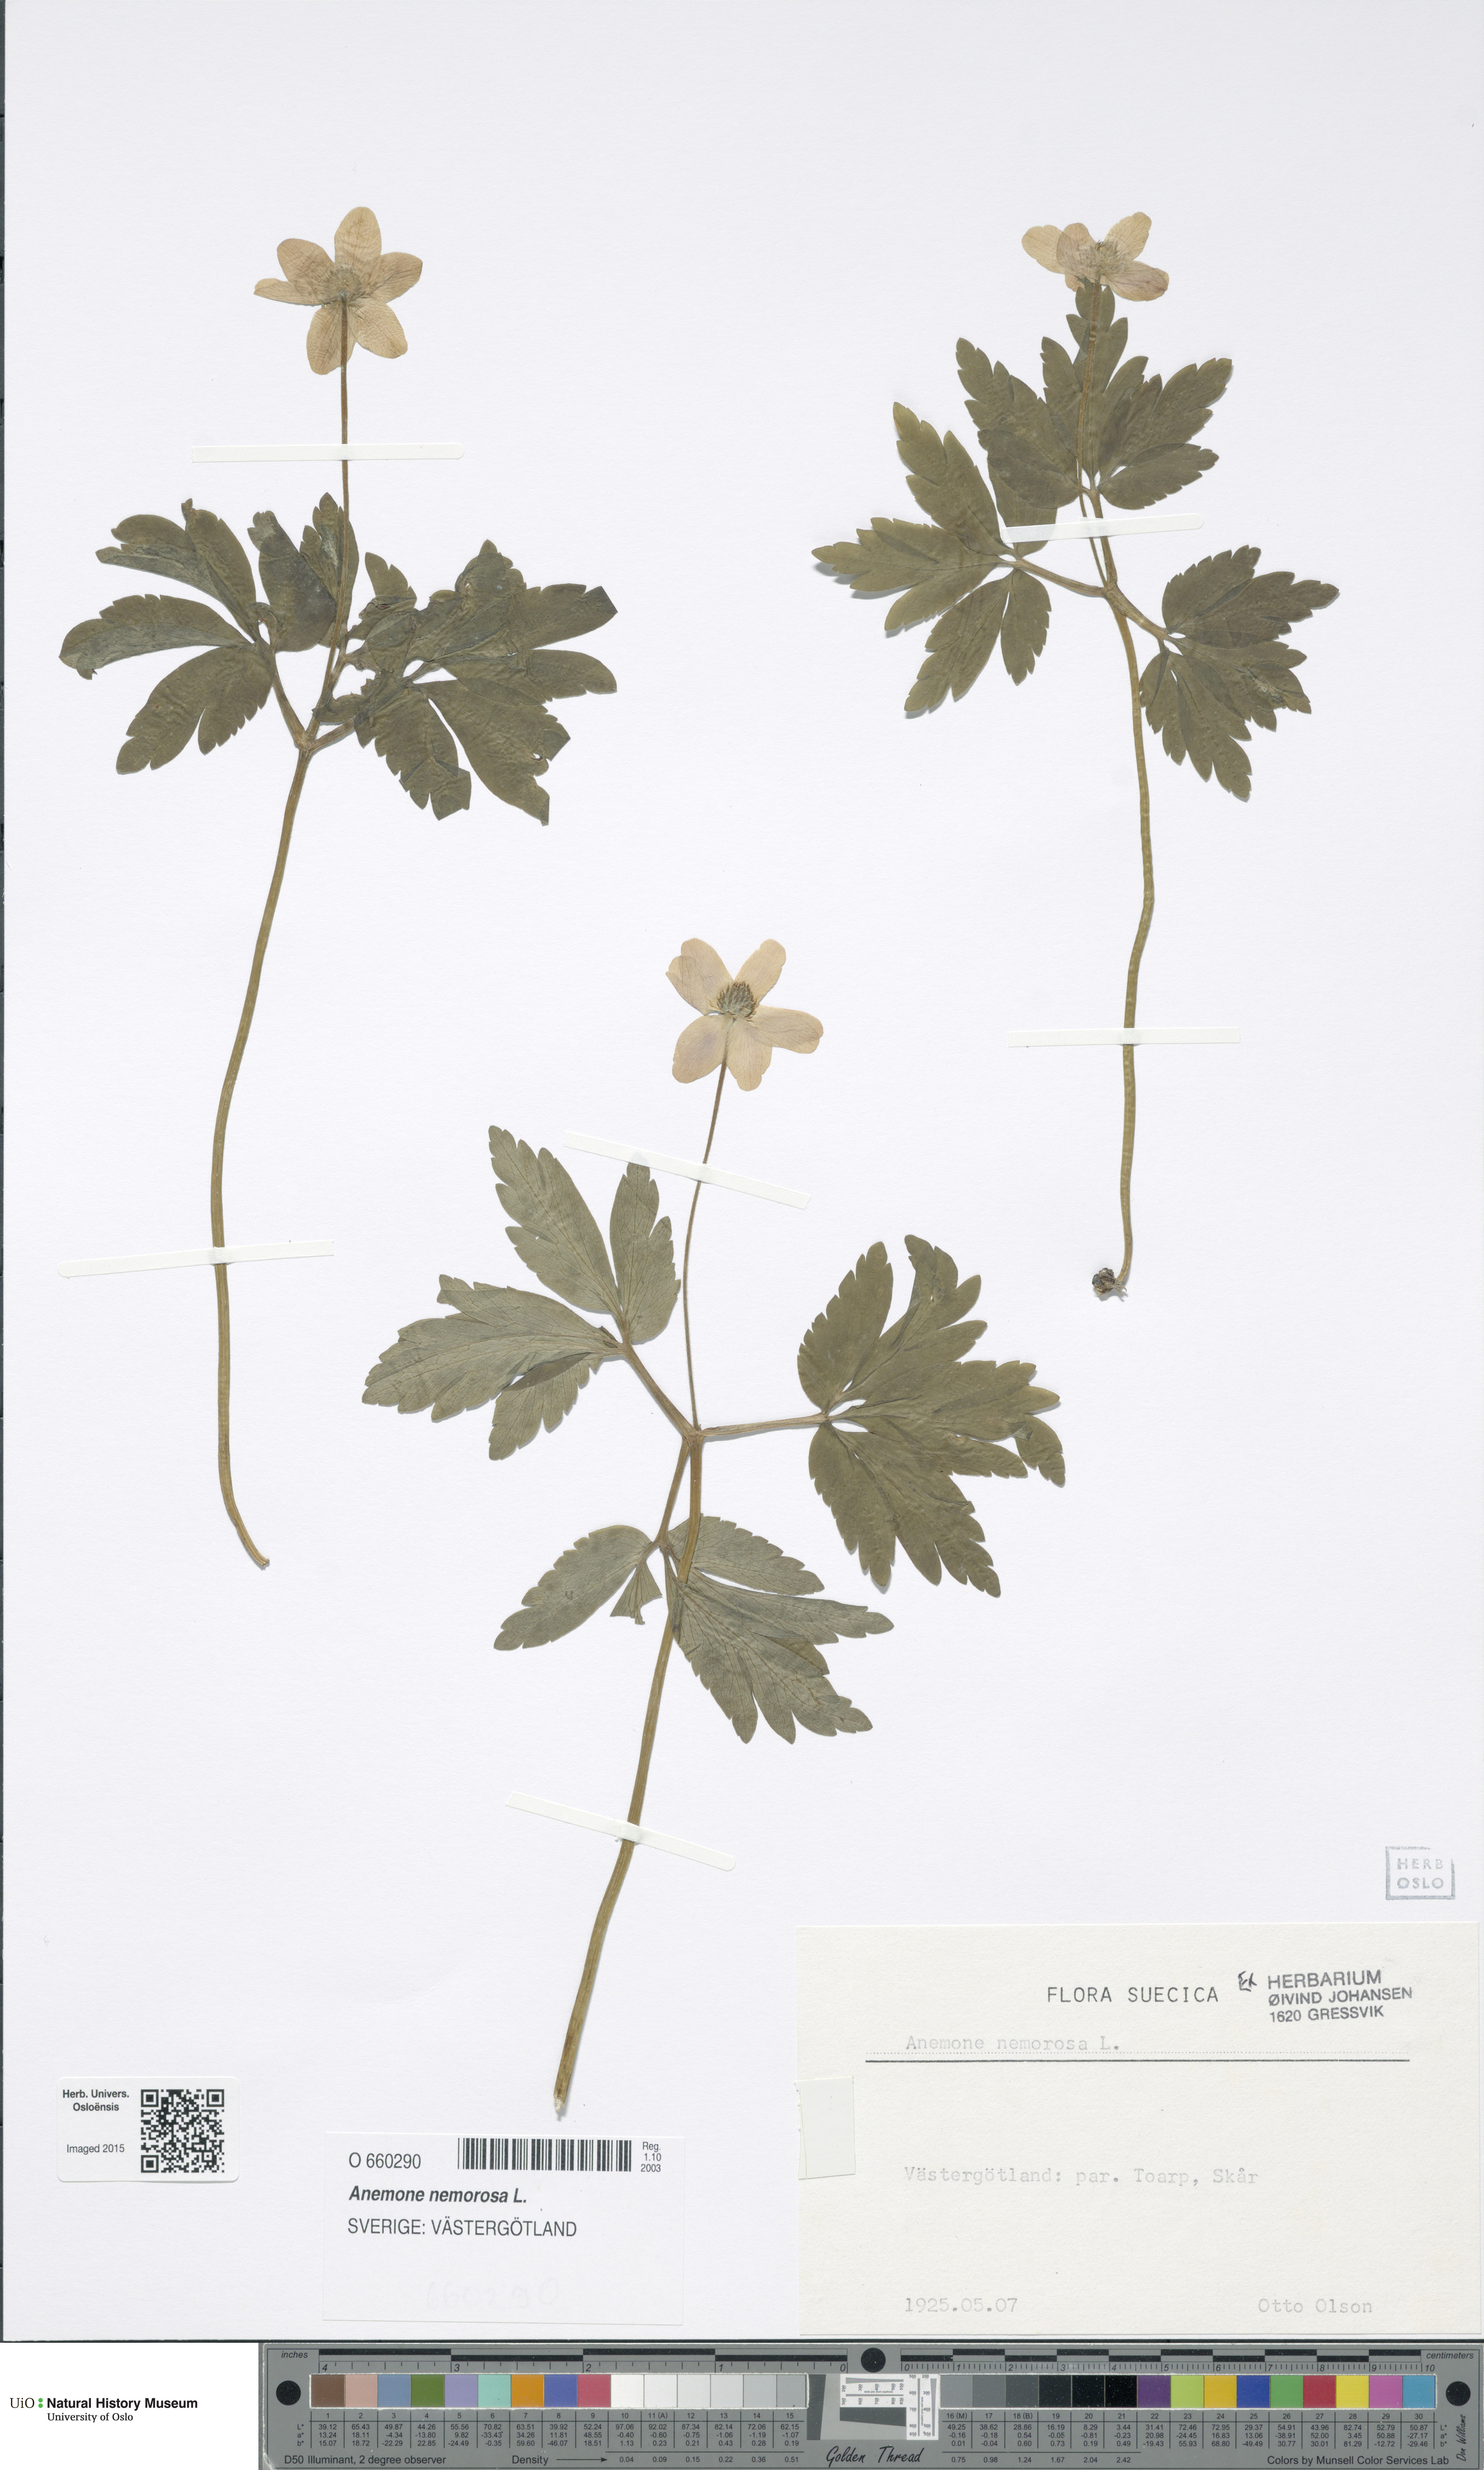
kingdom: Plantae
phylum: Tracheophyta
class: Magnoliopsida
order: Ranunculales
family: Ranunculaceae
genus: Anemone
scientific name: Anemone nemorosa
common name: Wood anemone
